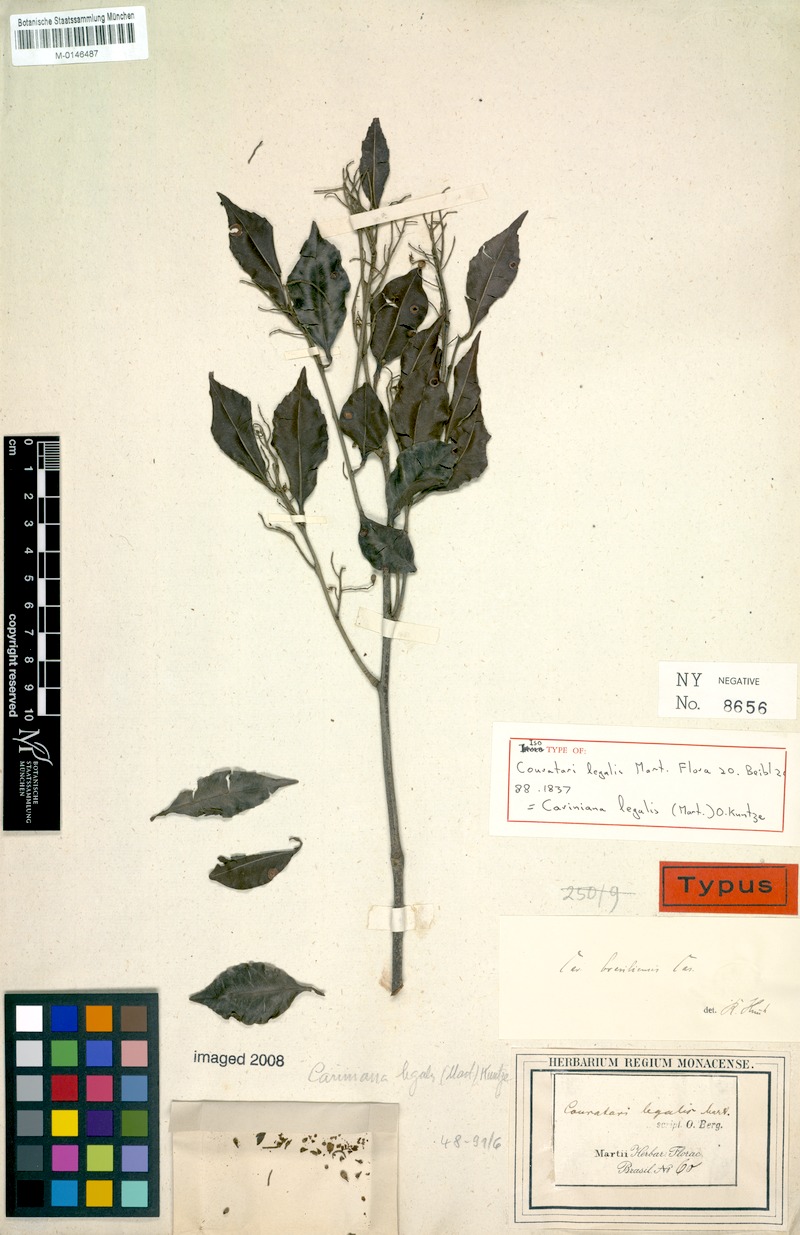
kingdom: Plantae
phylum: Tracheophyta
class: Magnoliopsida
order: Ericales
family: Lecythidaceae
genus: Cariniana
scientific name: Cariniana legalis
